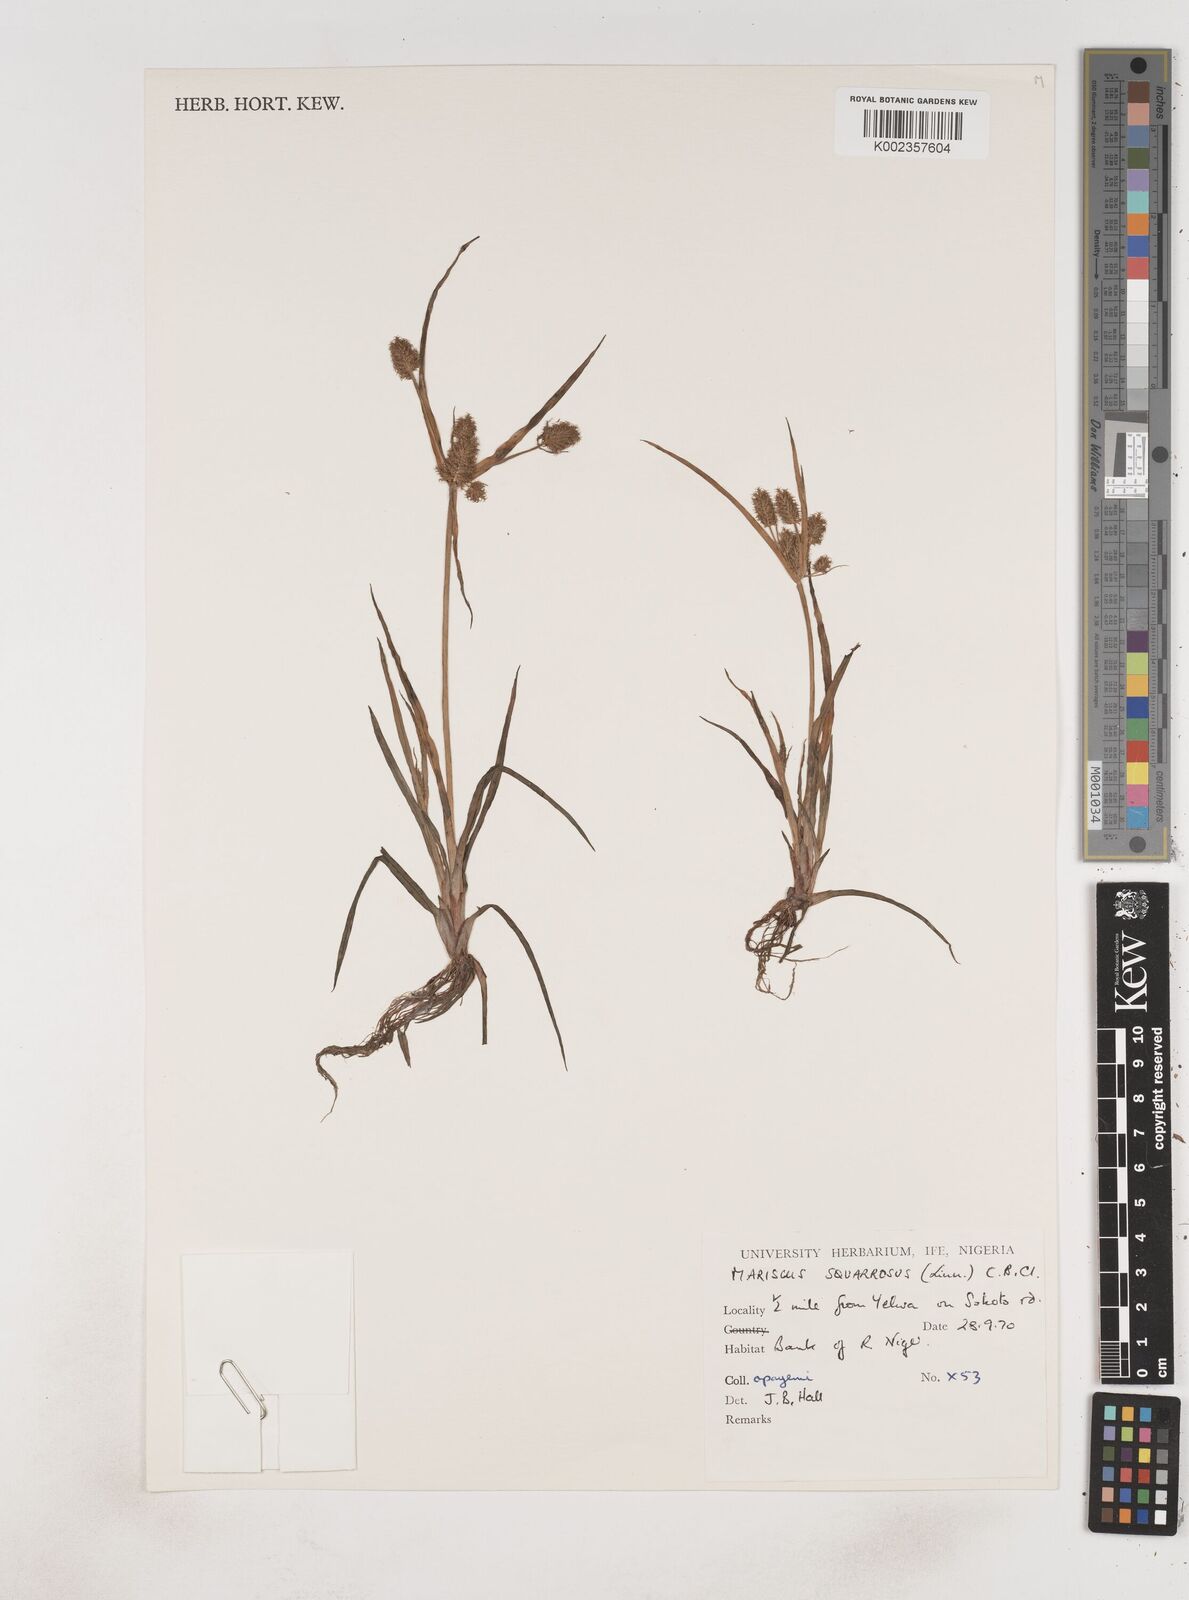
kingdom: Plantae
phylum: Tracheophyta
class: Liliopsida
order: Poales
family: Cyperaceae
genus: Cyperus
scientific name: Cyperus squarrosus
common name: Awned cyperus
